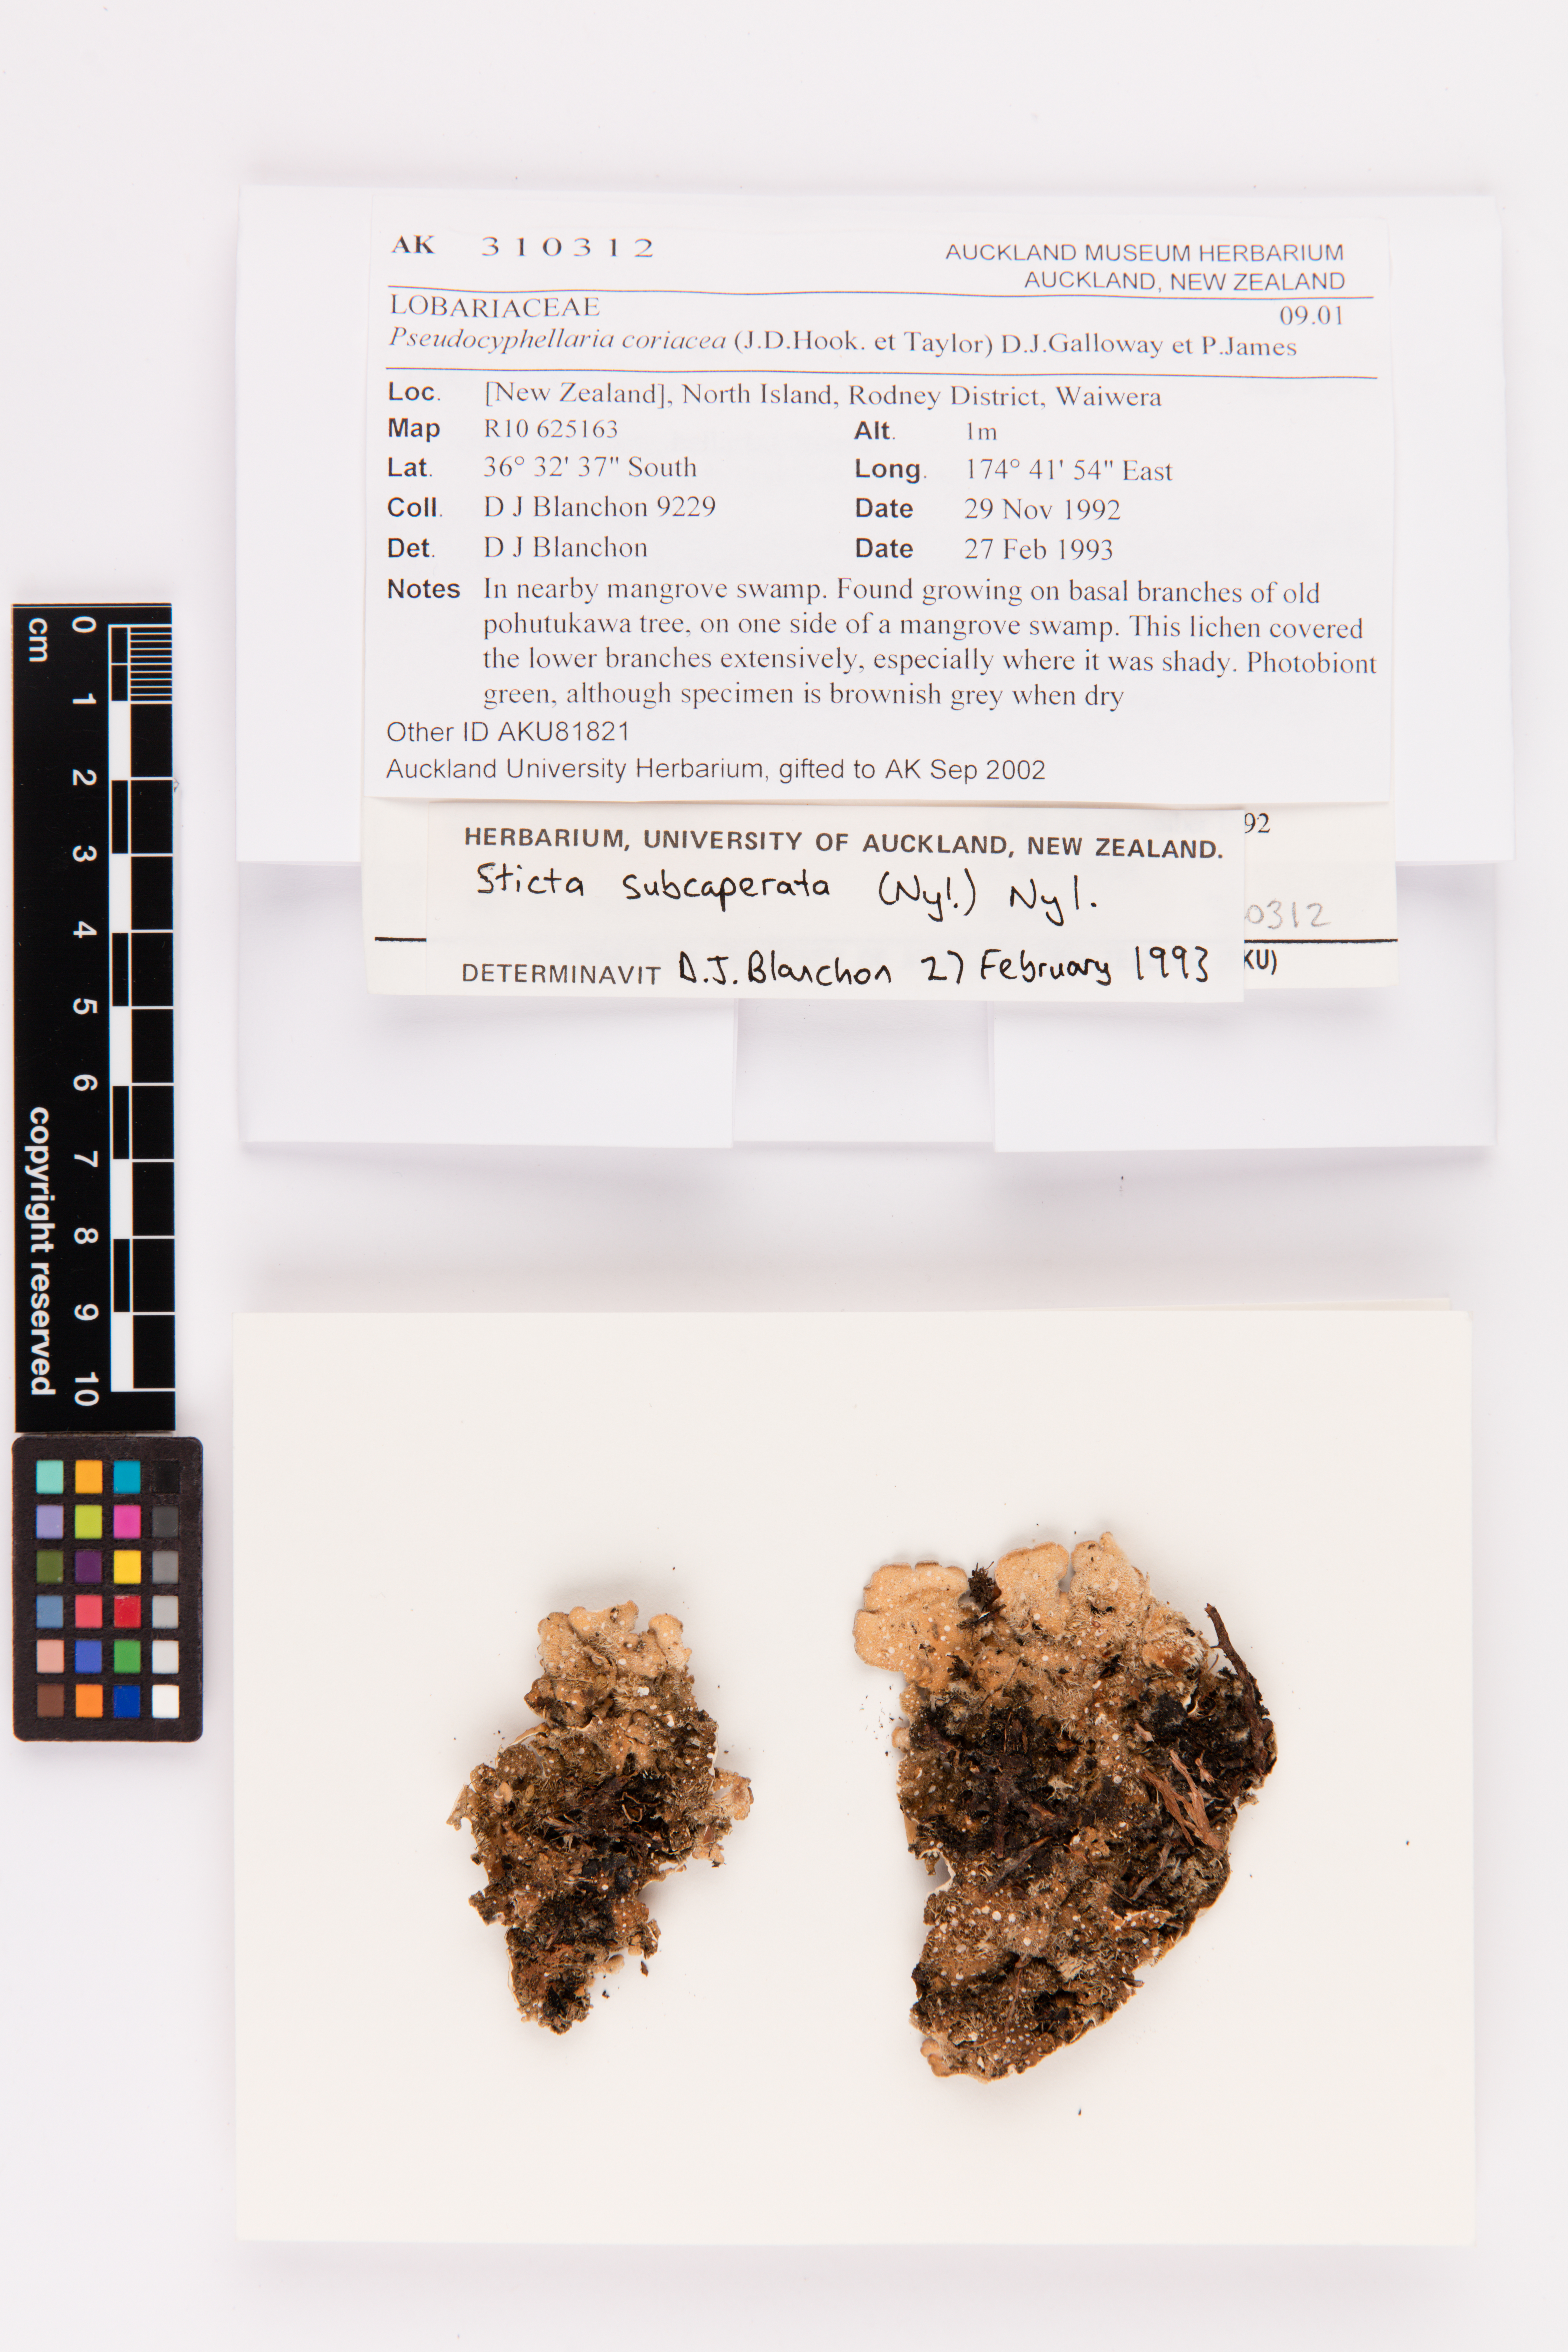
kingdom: Fungi
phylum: Ascomycota
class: Lecanoromycetes
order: Peltigerales
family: Lobariaceae
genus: Pseudocyphellaria
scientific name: Pseudocyphellaria coriacea
